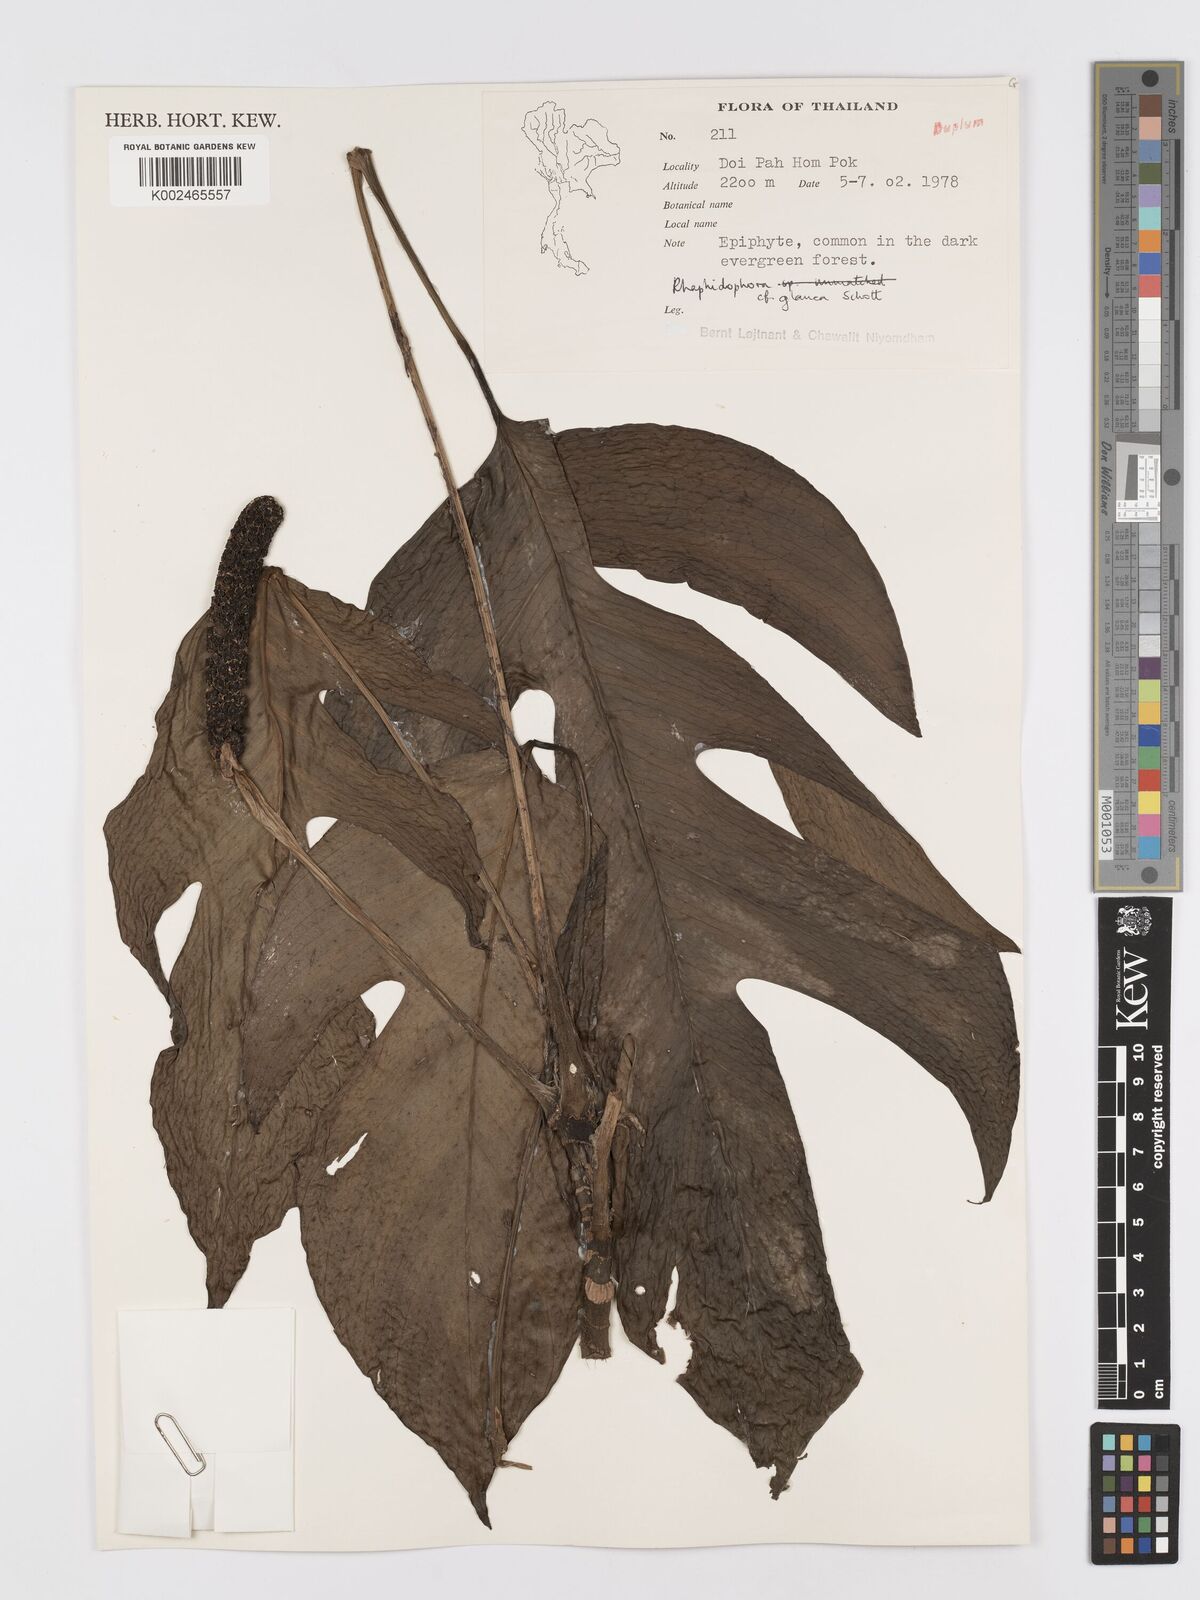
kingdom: Plantae
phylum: Tracheophyta
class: Liliopsida
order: Alismatales
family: Araceae
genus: Rhaphidophora
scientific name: Rhaphidophora glauca
